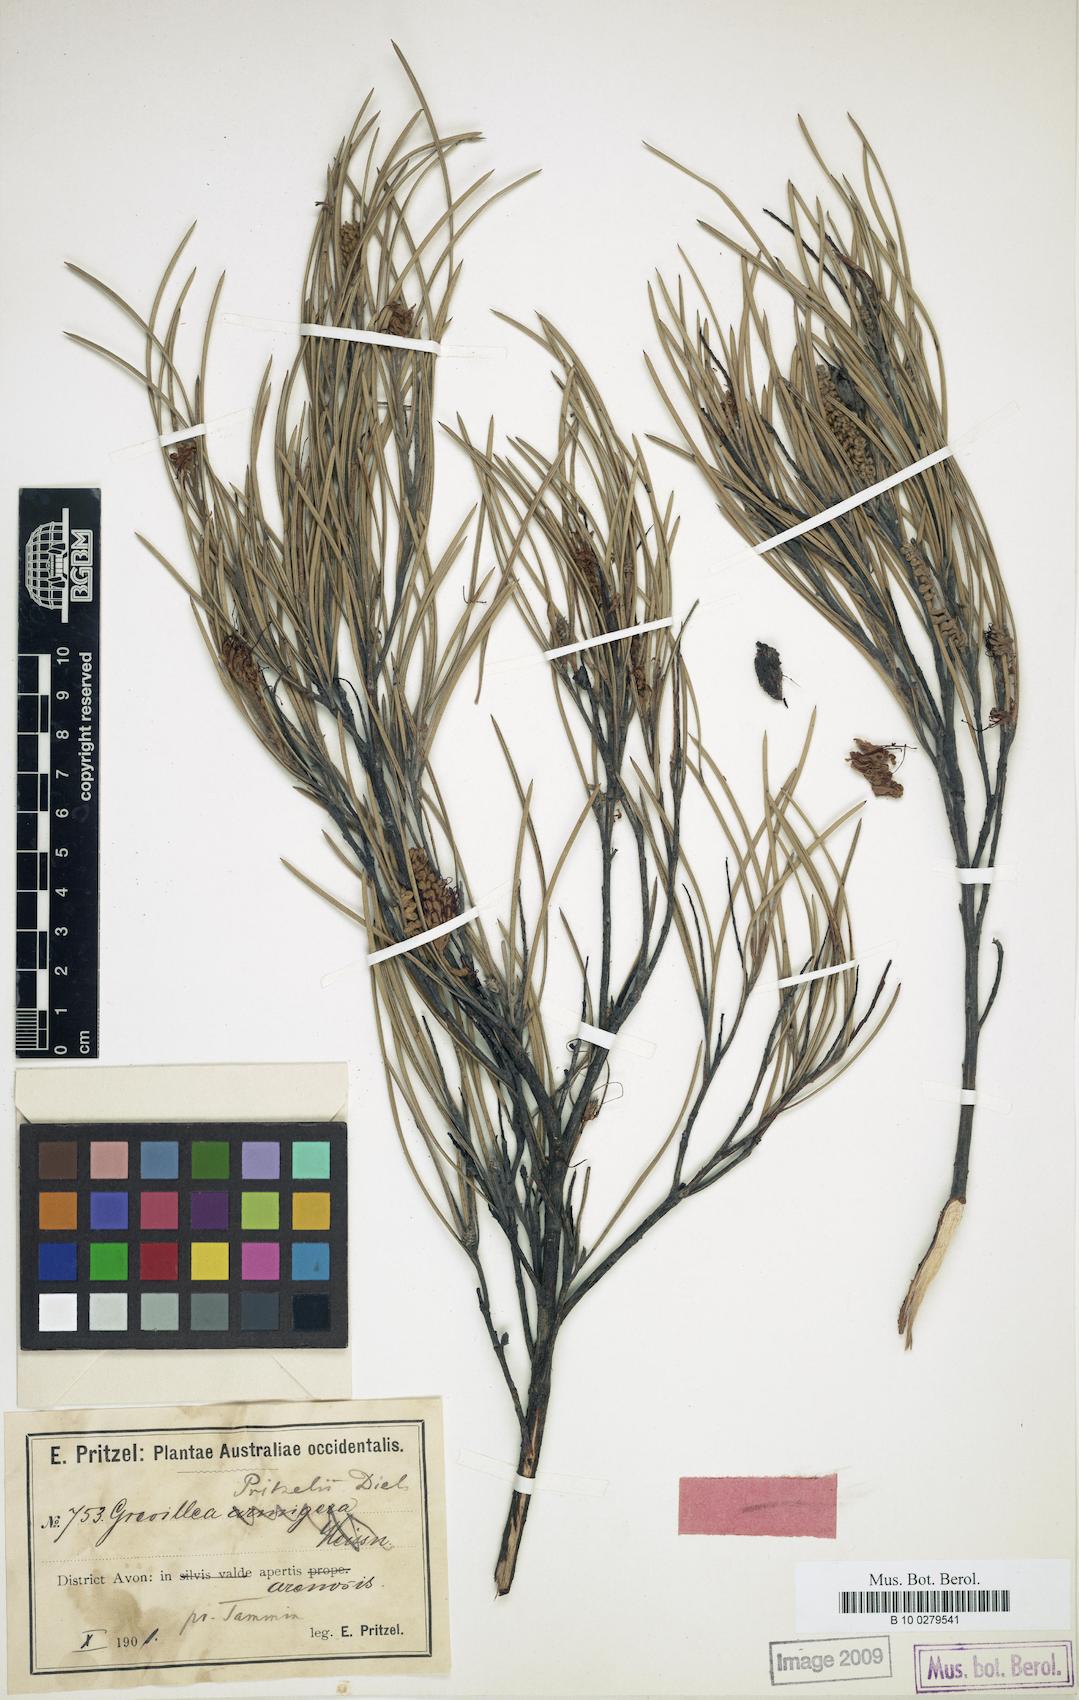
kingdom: Plantae
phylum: Tracheophyta
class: Magnoliopsida
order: Proteales
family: Proteaceae
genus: Grevillea
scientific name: Grevillea hookeriana
